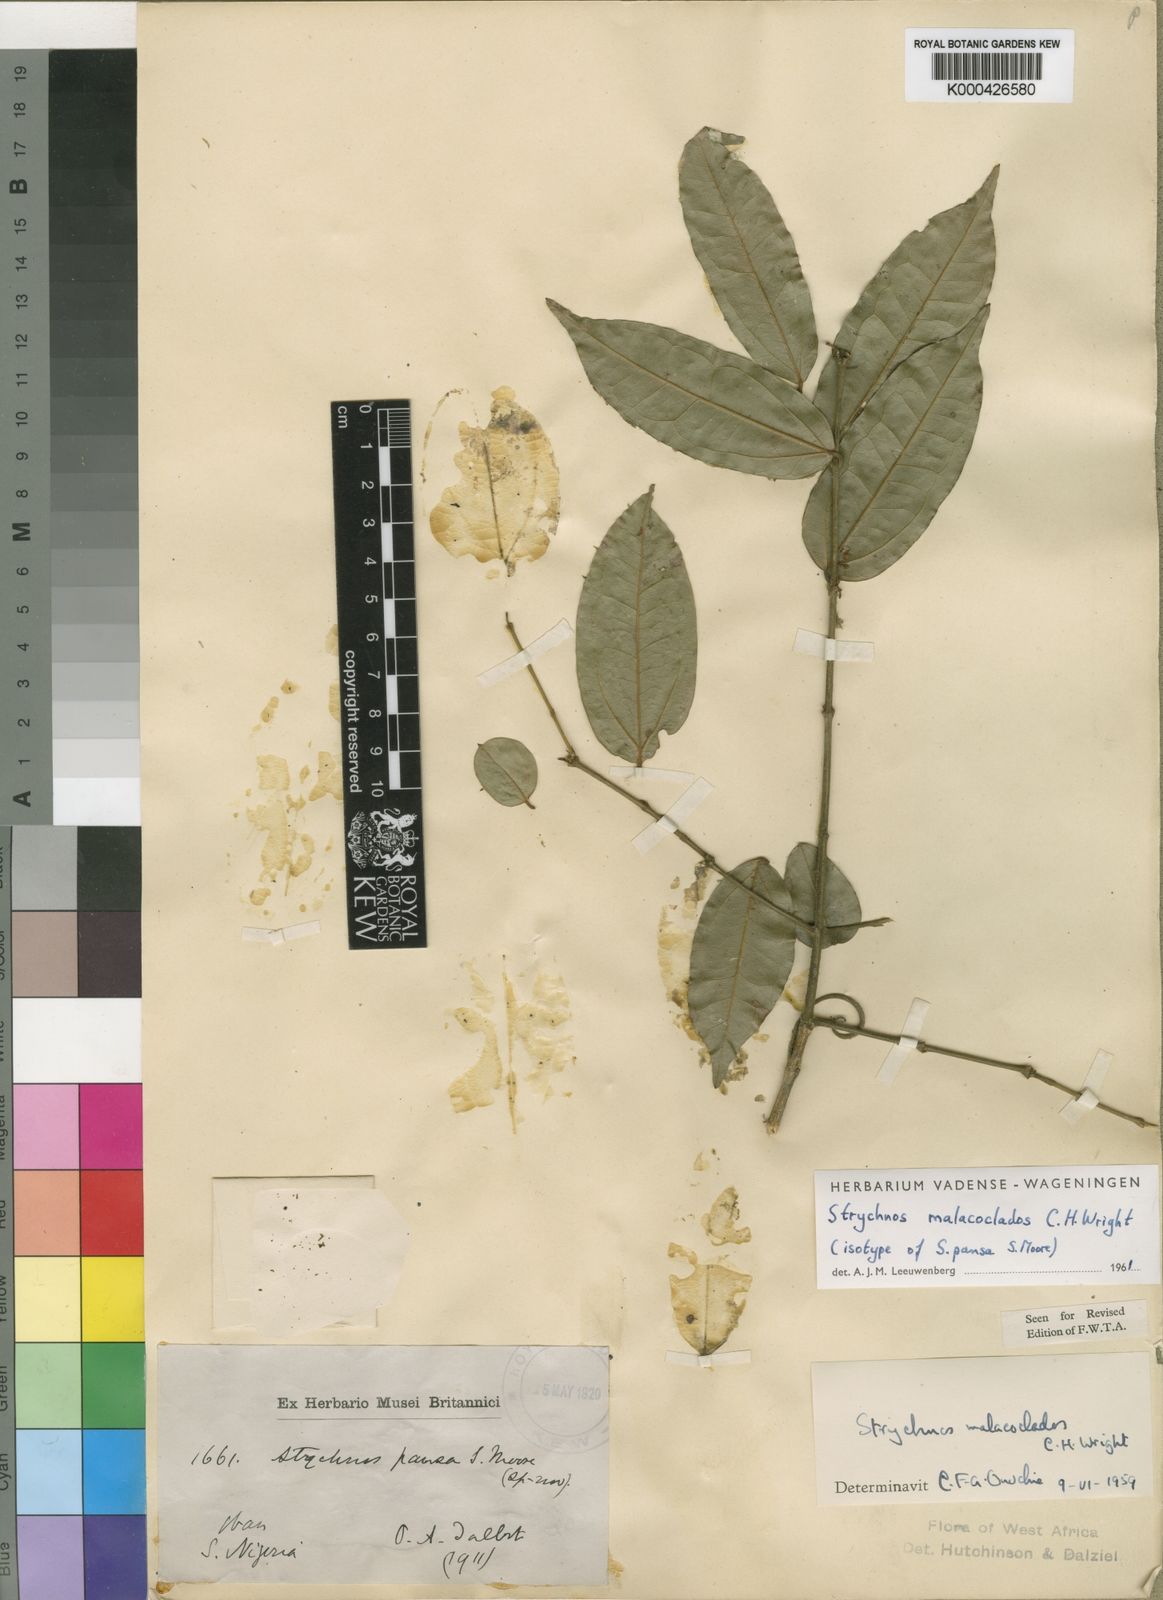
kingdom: Plantae
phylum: Tracheophyta
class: Magnoliopsida
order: Gentianales
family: Loganiaceae
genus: Strychnos
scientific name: Strychnos malacoclados
